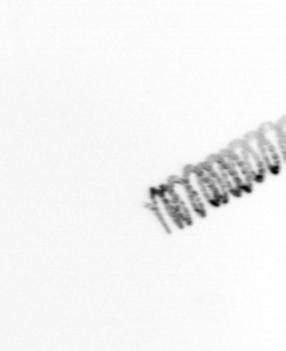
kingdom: Chromista
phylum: Ochrophyta
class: Bacillariophyceae
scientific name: Bacillariophyceae
